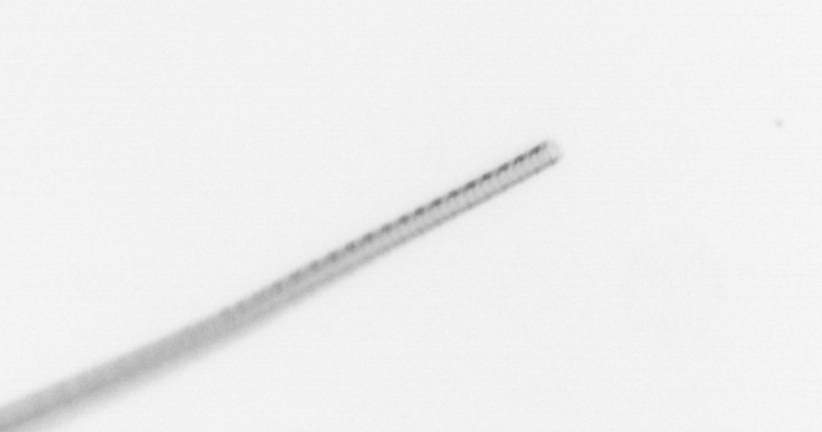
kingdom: Chromista
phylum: Ochrophyta
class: Bacillariophyceae
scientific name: Bacillariophyceae
